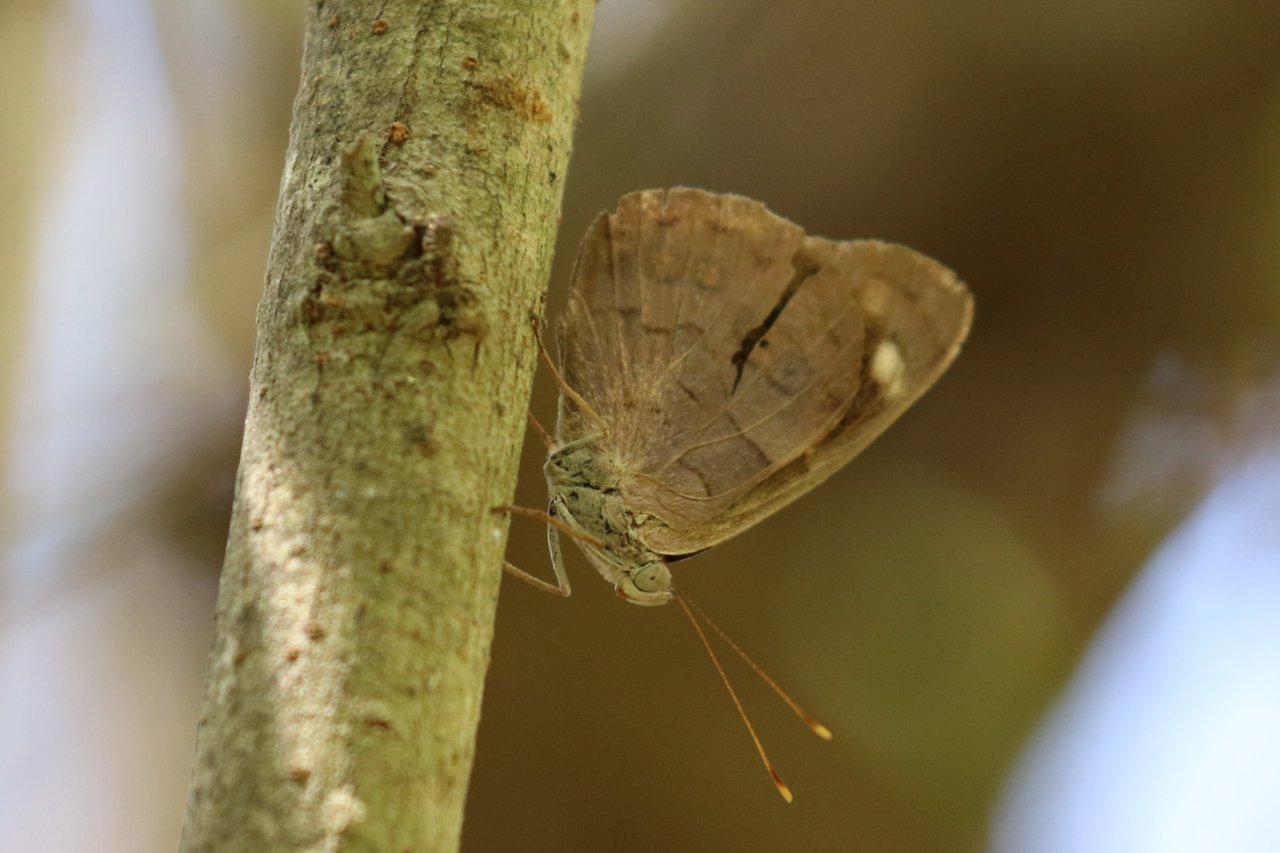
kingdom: Animalia
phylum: Arthropoda
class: Insecta
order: Lepidoptera
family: Nymphalidae
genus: Eunica
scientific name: Eunica monima
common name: Dingy Purplewing
